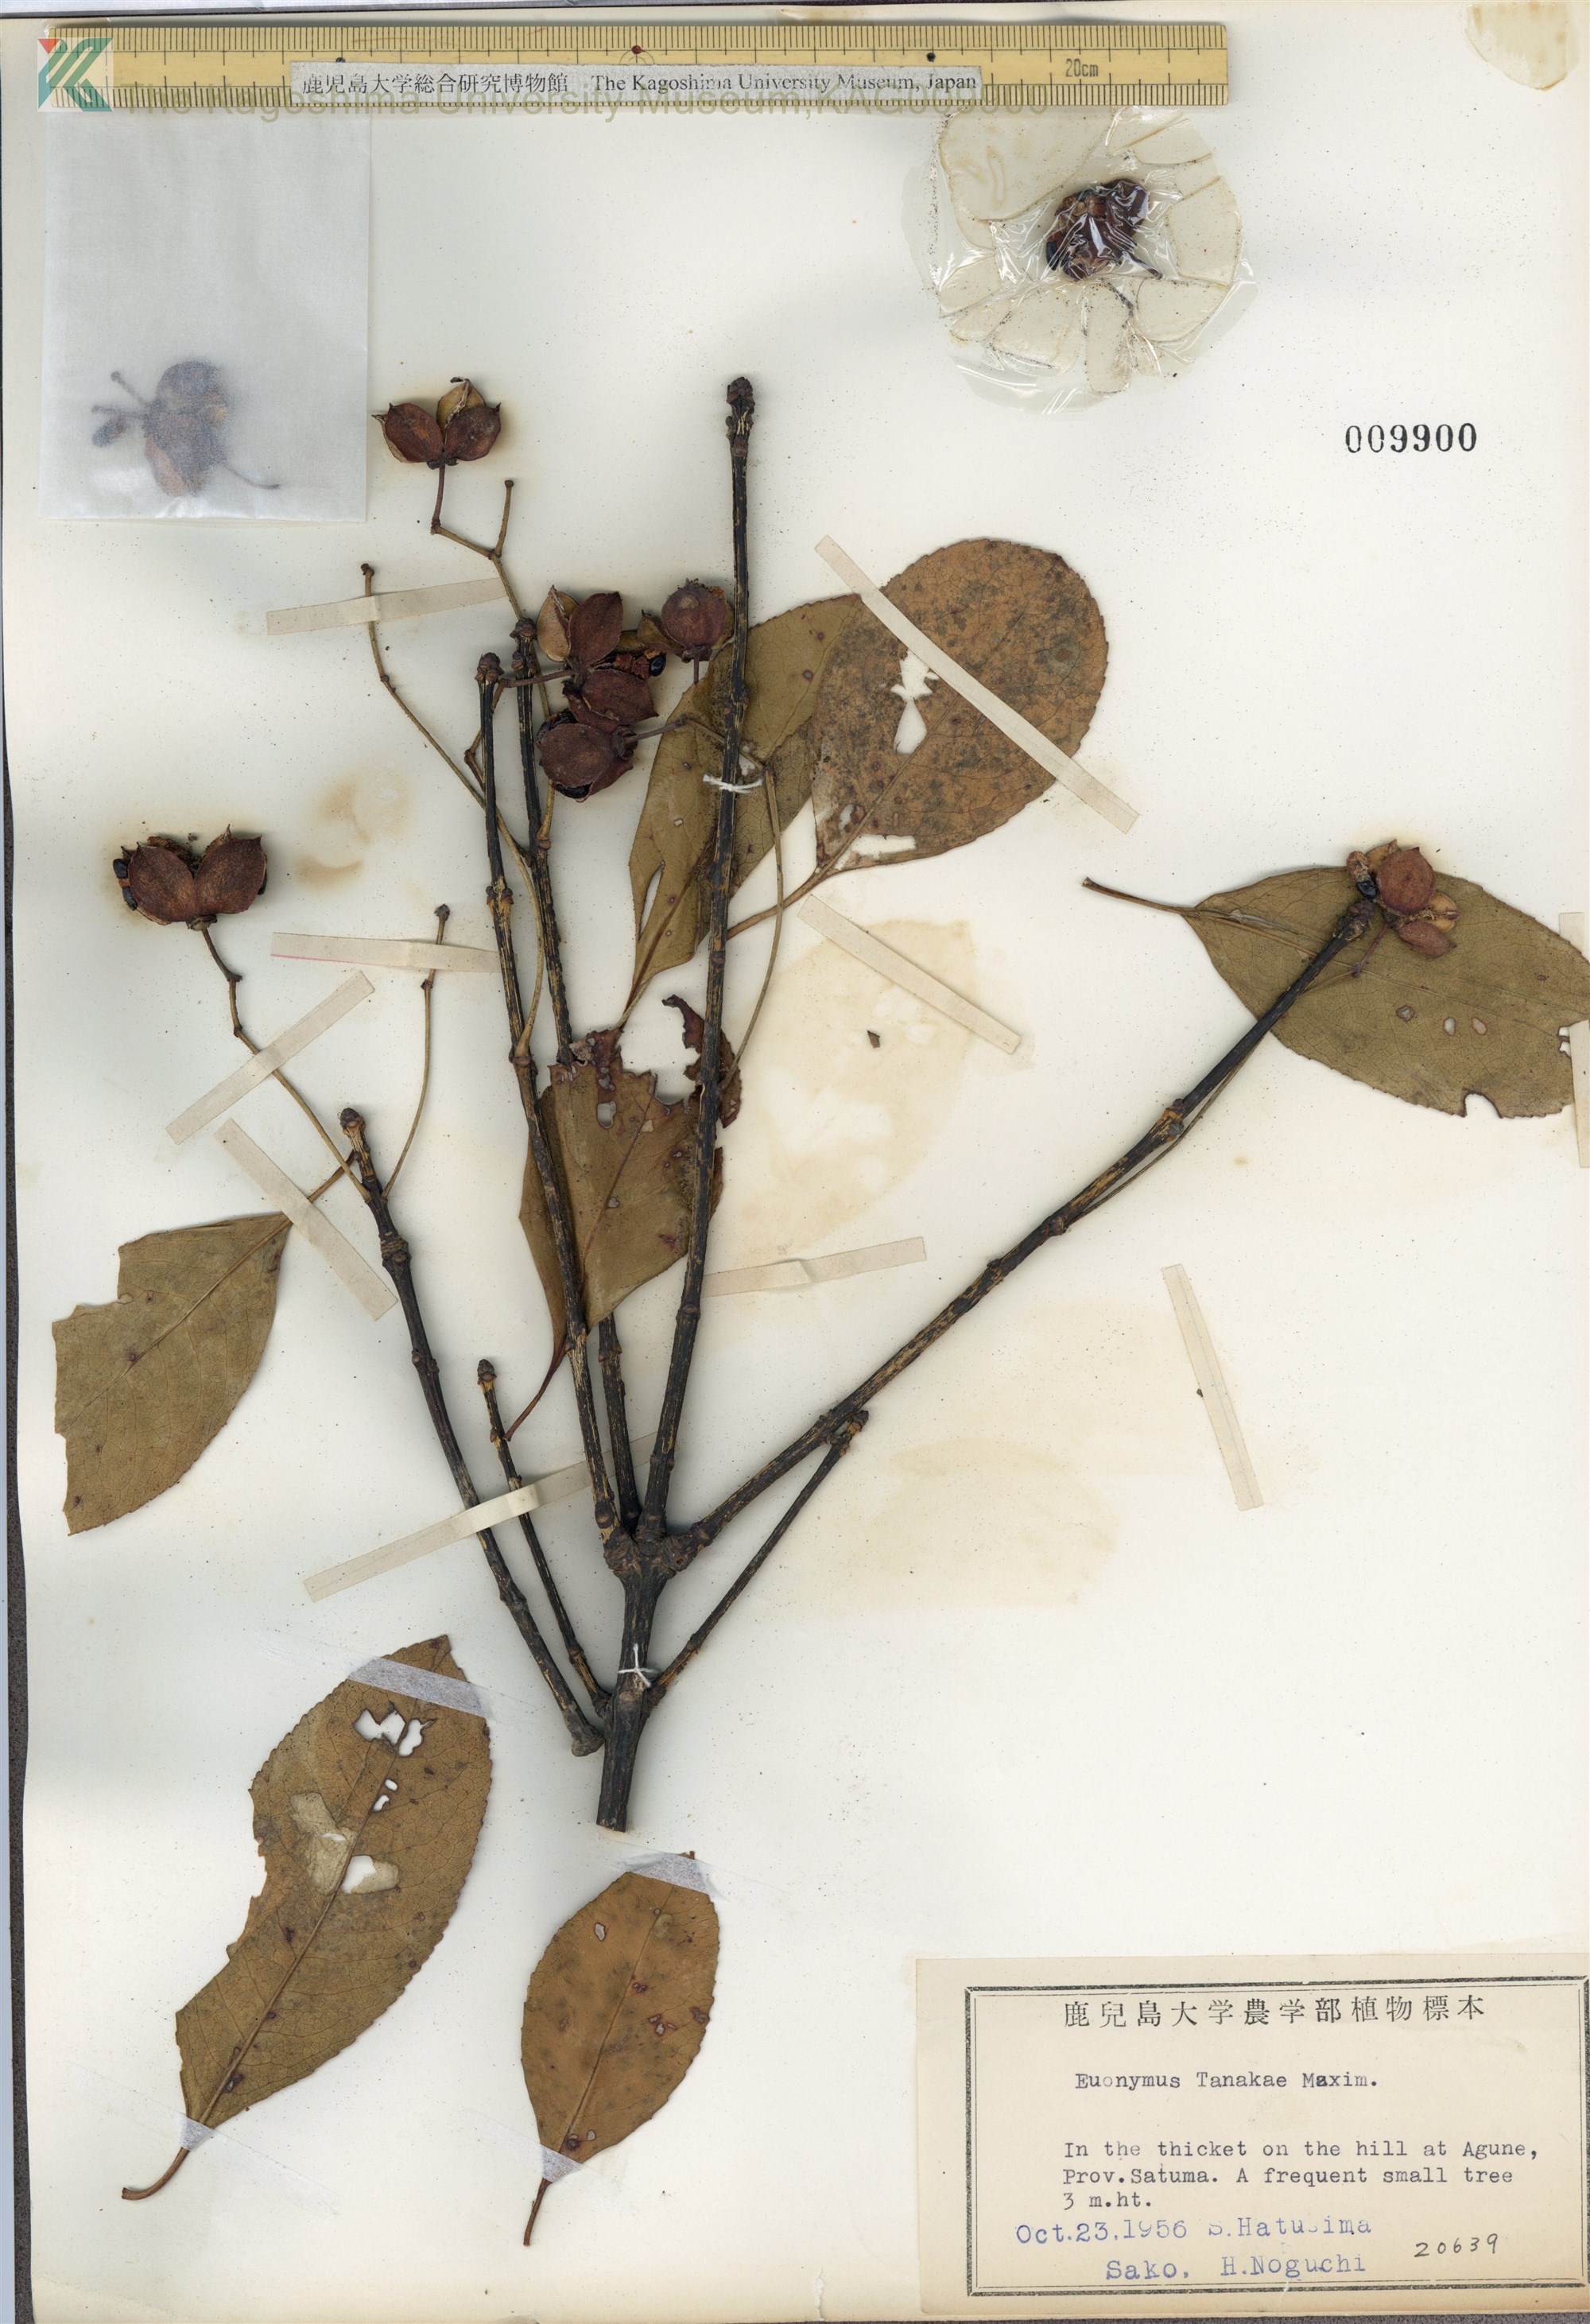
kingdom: Plantae
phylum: Tracheophyta
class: Magnoliopsida
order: Celastrales
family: Celastraceae
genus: Euonymus
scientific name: Euonymus carnosus
